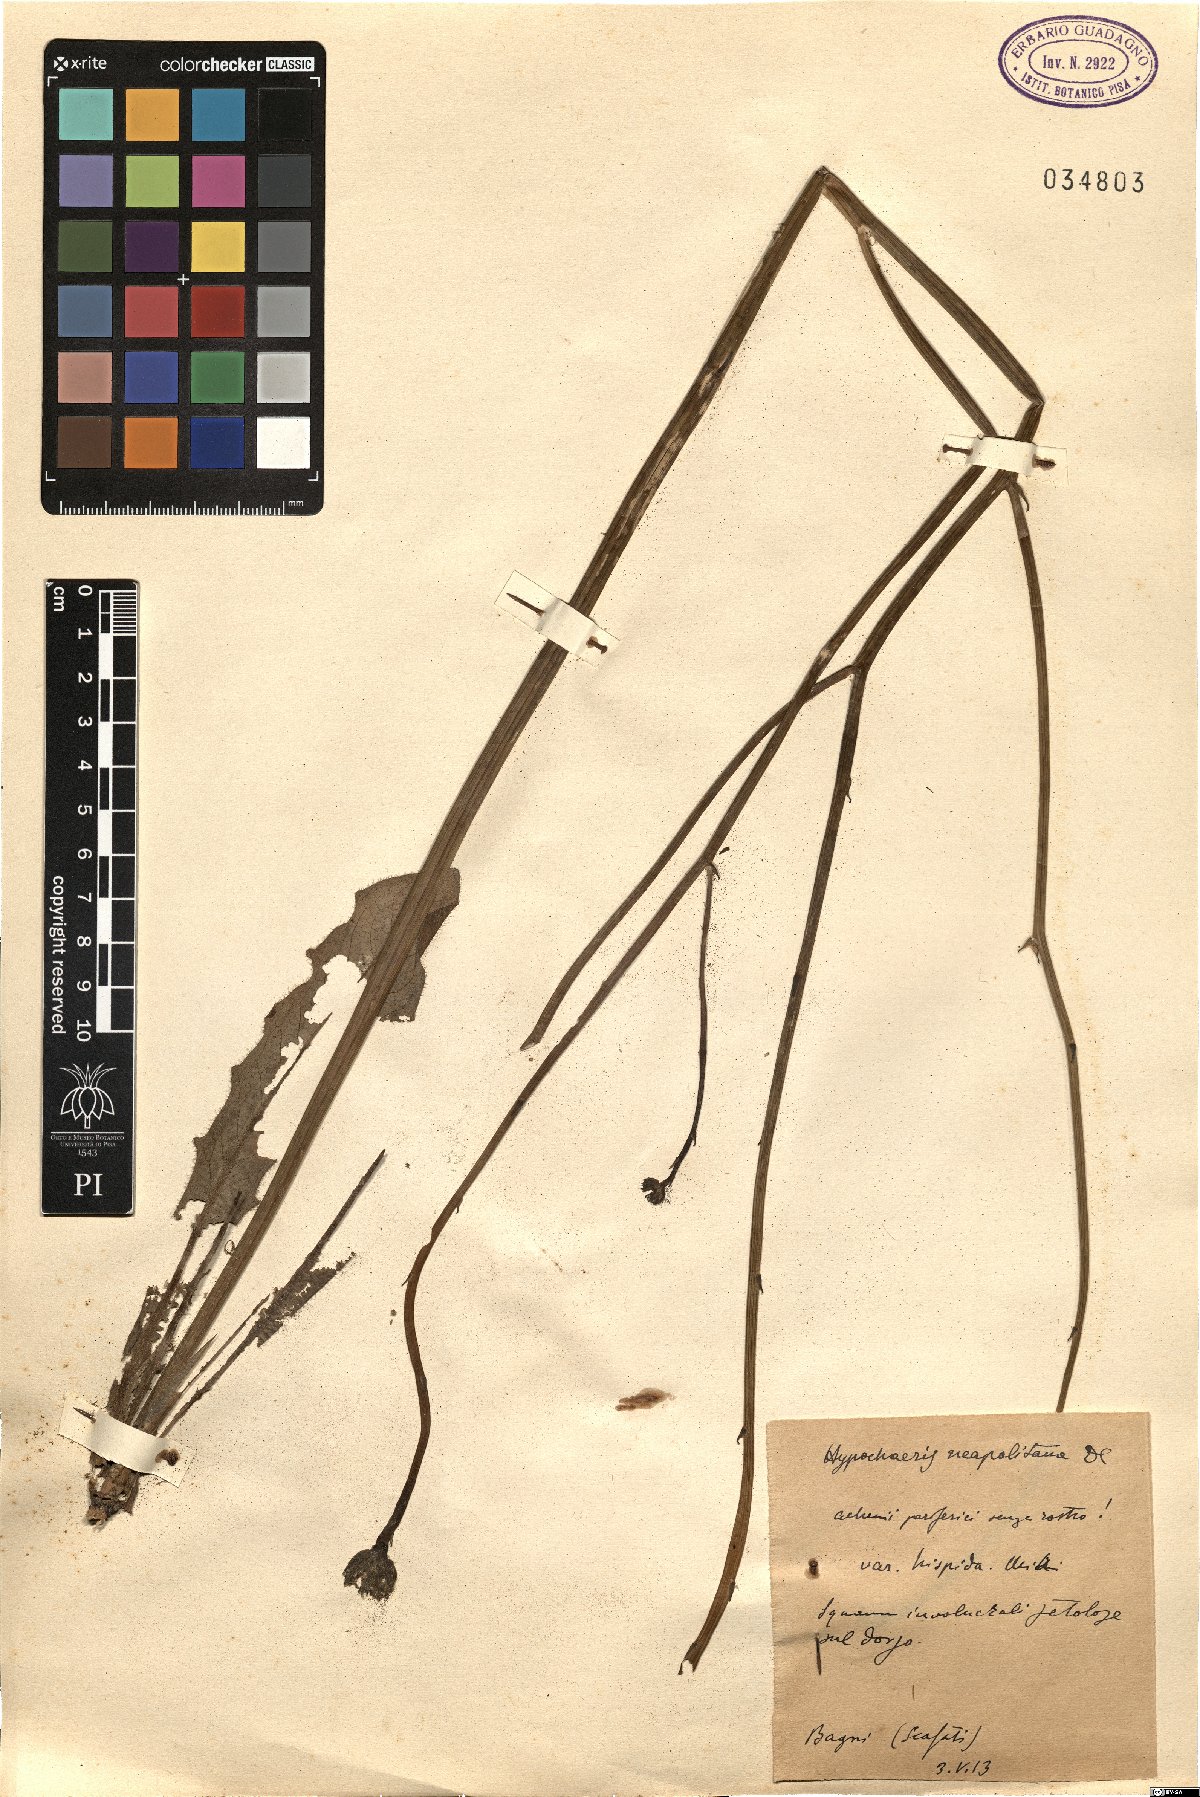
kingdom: Plantae
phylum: Tracheophyta
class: Magnoliopsida
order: Asterales
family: Asteraceae
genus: Hypochaeris
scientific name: Hypochaeris radicata
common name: Flatweed
